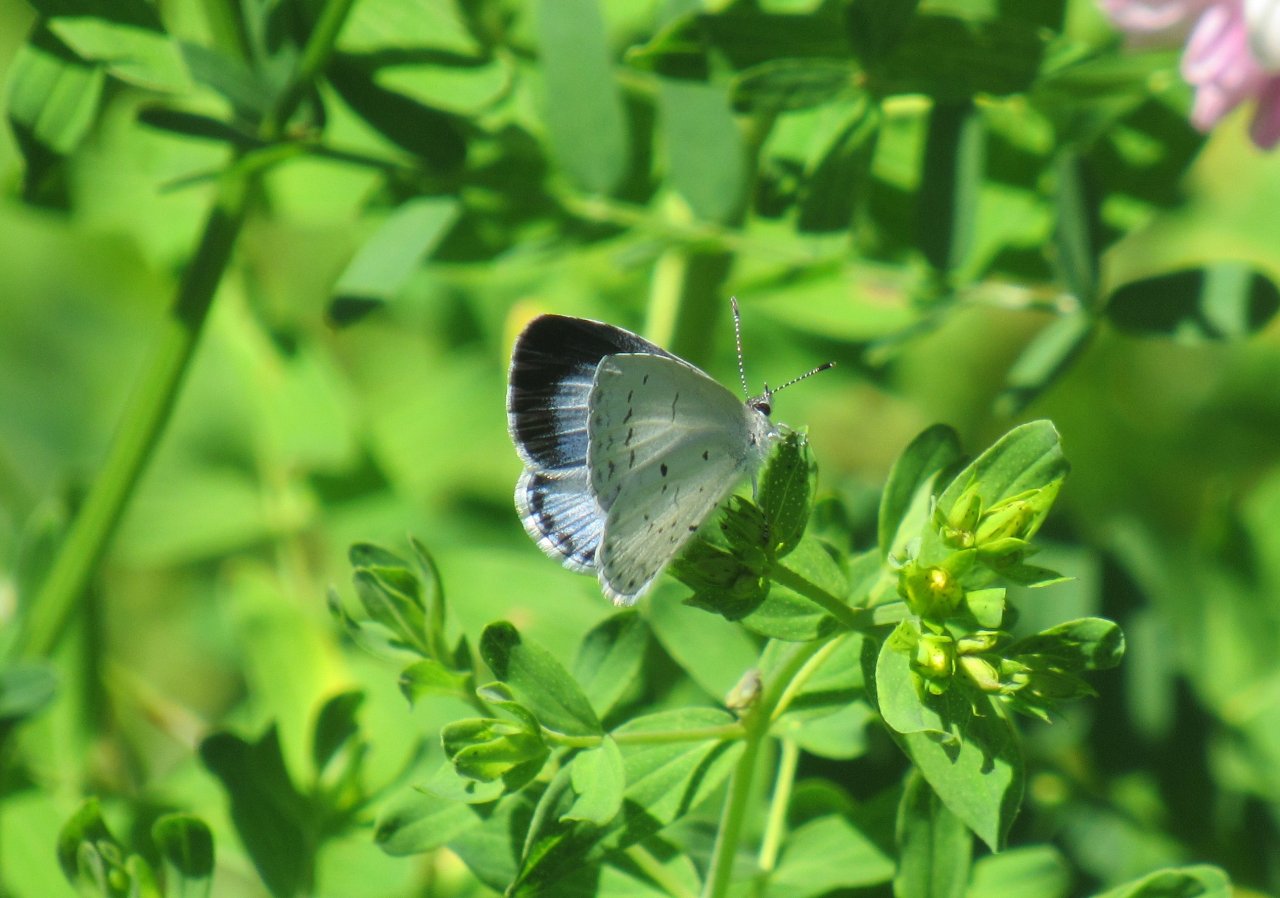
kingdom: Animalia
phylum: Arthropoda
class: Insecta
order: Lepidoptera
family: Lycaenidae
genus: Cyaniris
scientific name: Cyaniris neglecta
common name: Summer Azure
